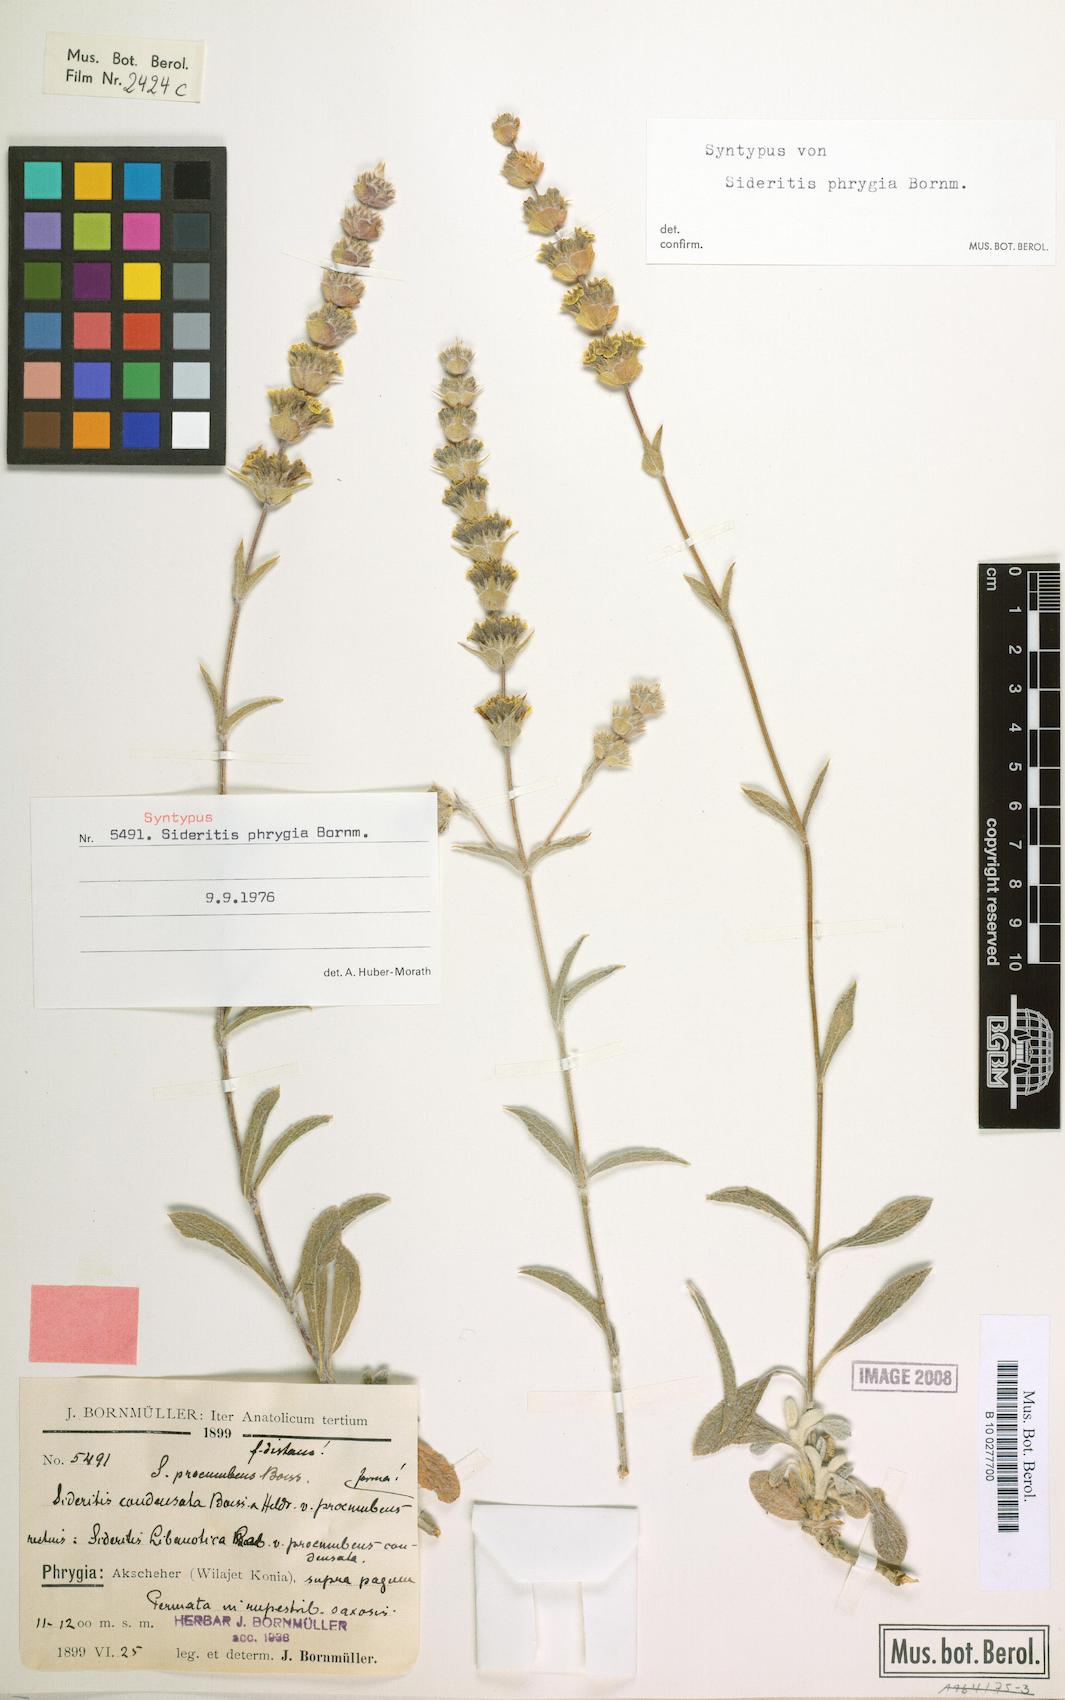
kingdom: Plantae
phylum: Tracheophyta
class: Magnoliopsida
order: Lamiales
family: Lamiaceae
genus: Sideritis
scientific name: Sideritis phrygia
